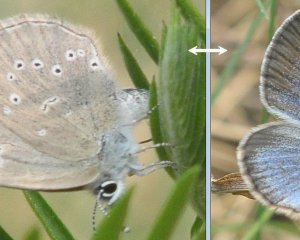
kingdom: Animalia
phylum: Arthropoda
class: Insecta
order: Lepidoptera
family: Lycaenidae
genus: Glaucopsyche
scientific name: Glaucopsyche lygdamus
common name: Silvery Blue
